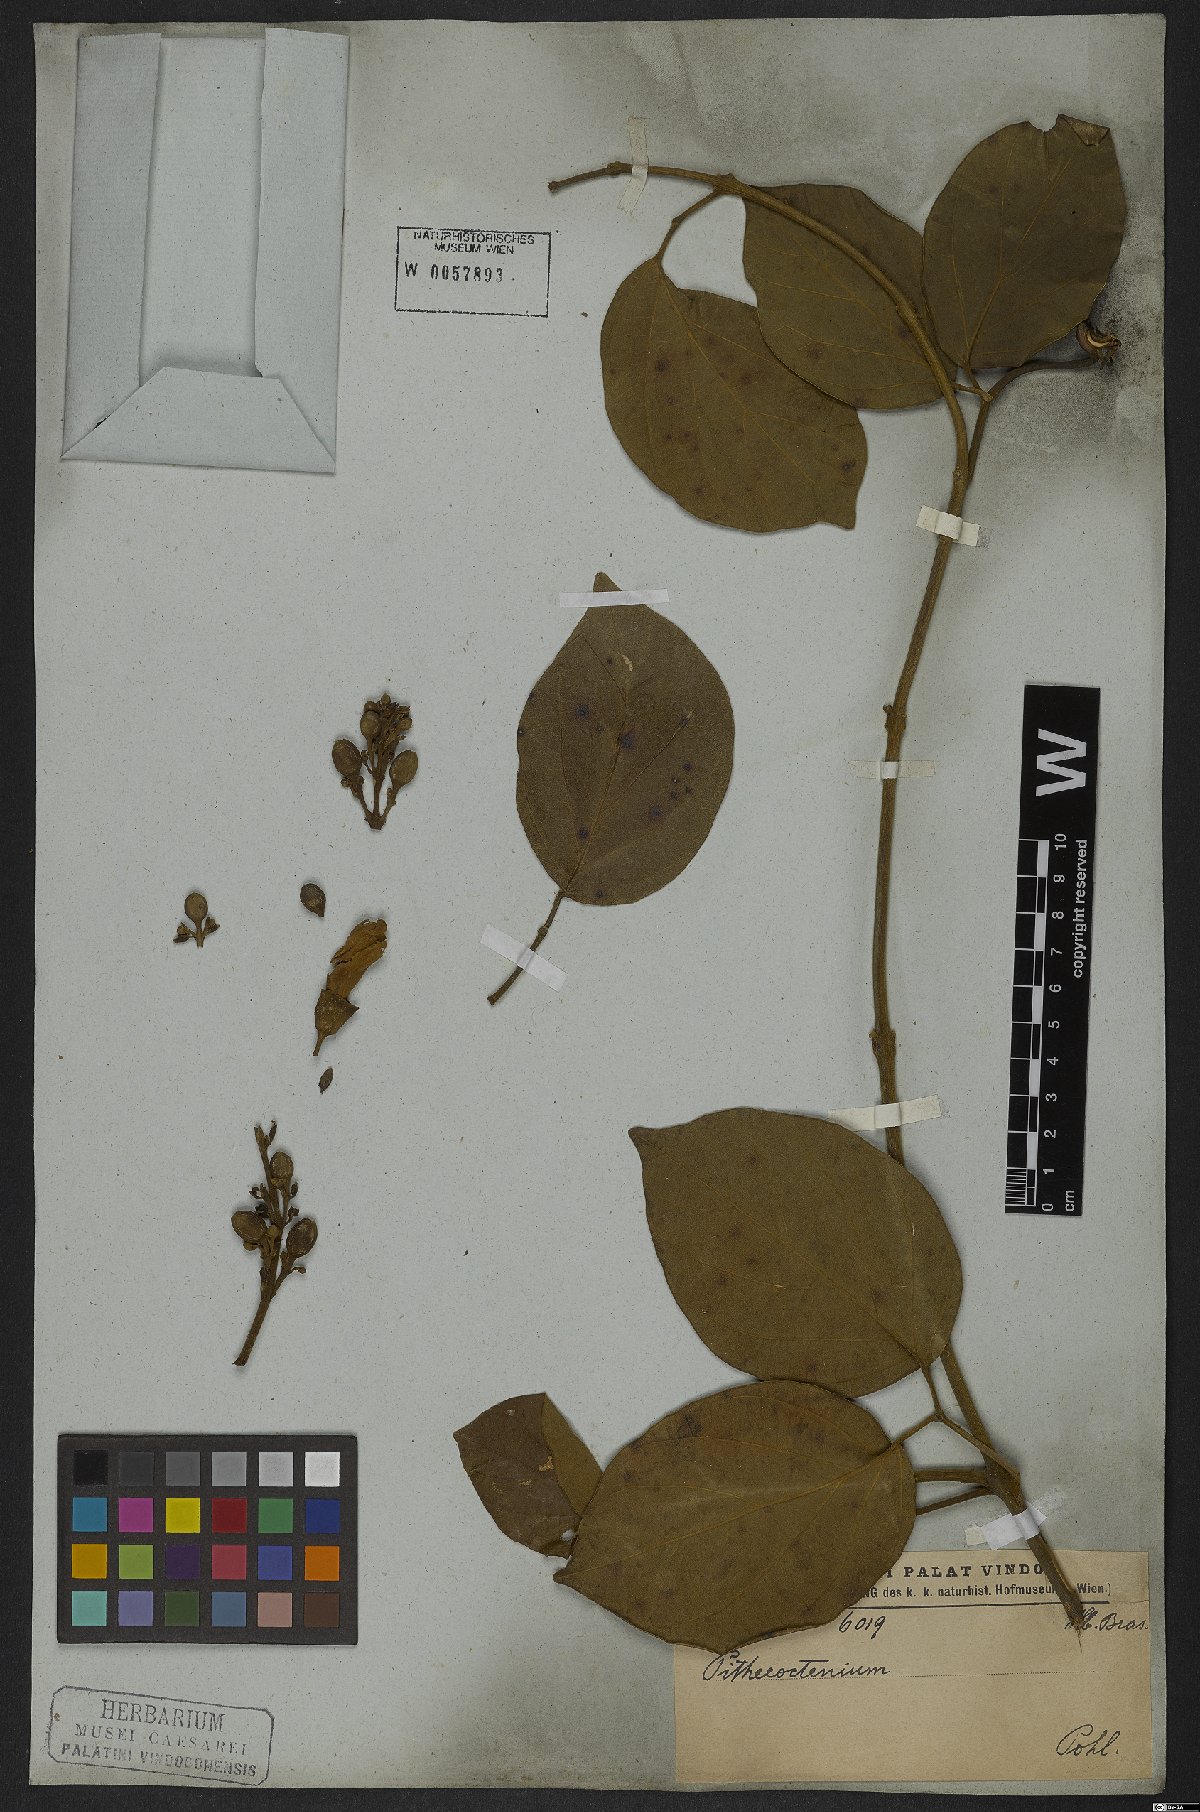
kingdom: Plantae
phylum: Tracheophyta
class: Magnoliopsida
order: Lamiales
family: Bignoniaceae
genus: Amphilophium
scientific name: Amphilophium mansoanum
